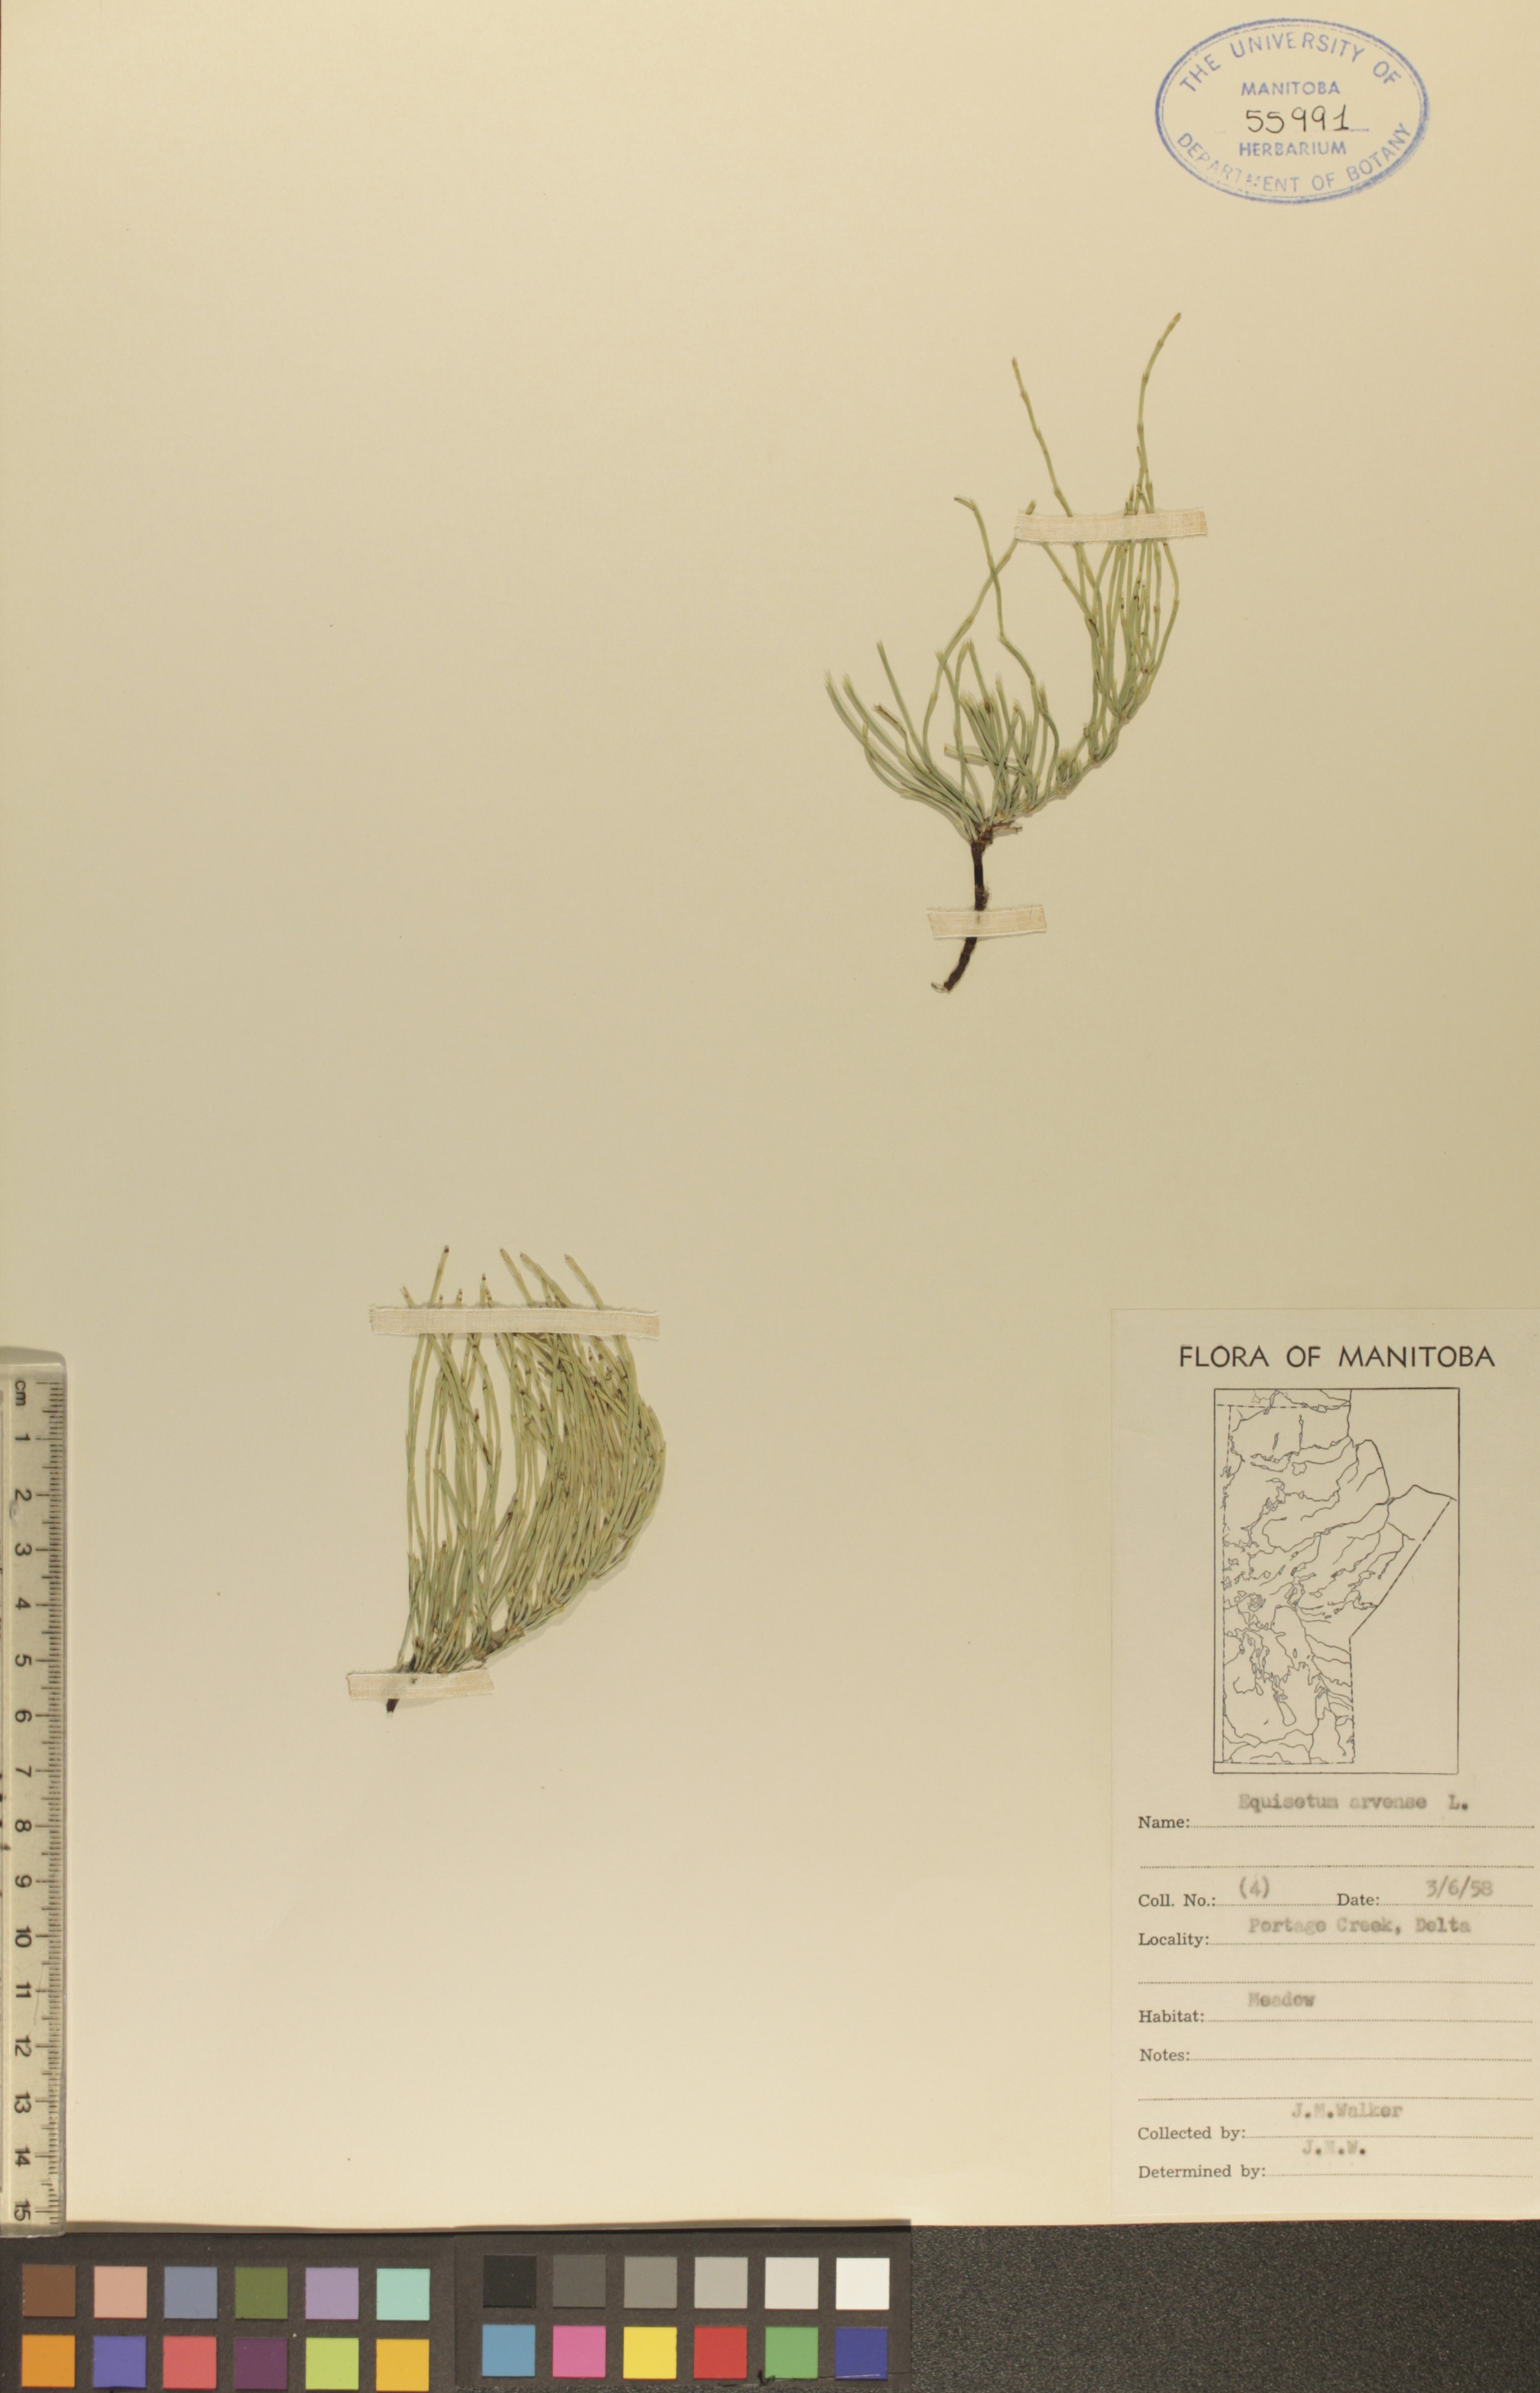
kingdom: Plantae
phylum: Tracheophyta
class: Polypodiopsida
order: Equisetales
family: Equisetaceae
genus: Equisetum
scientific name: Equisetum arvense
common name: Field horsetail
